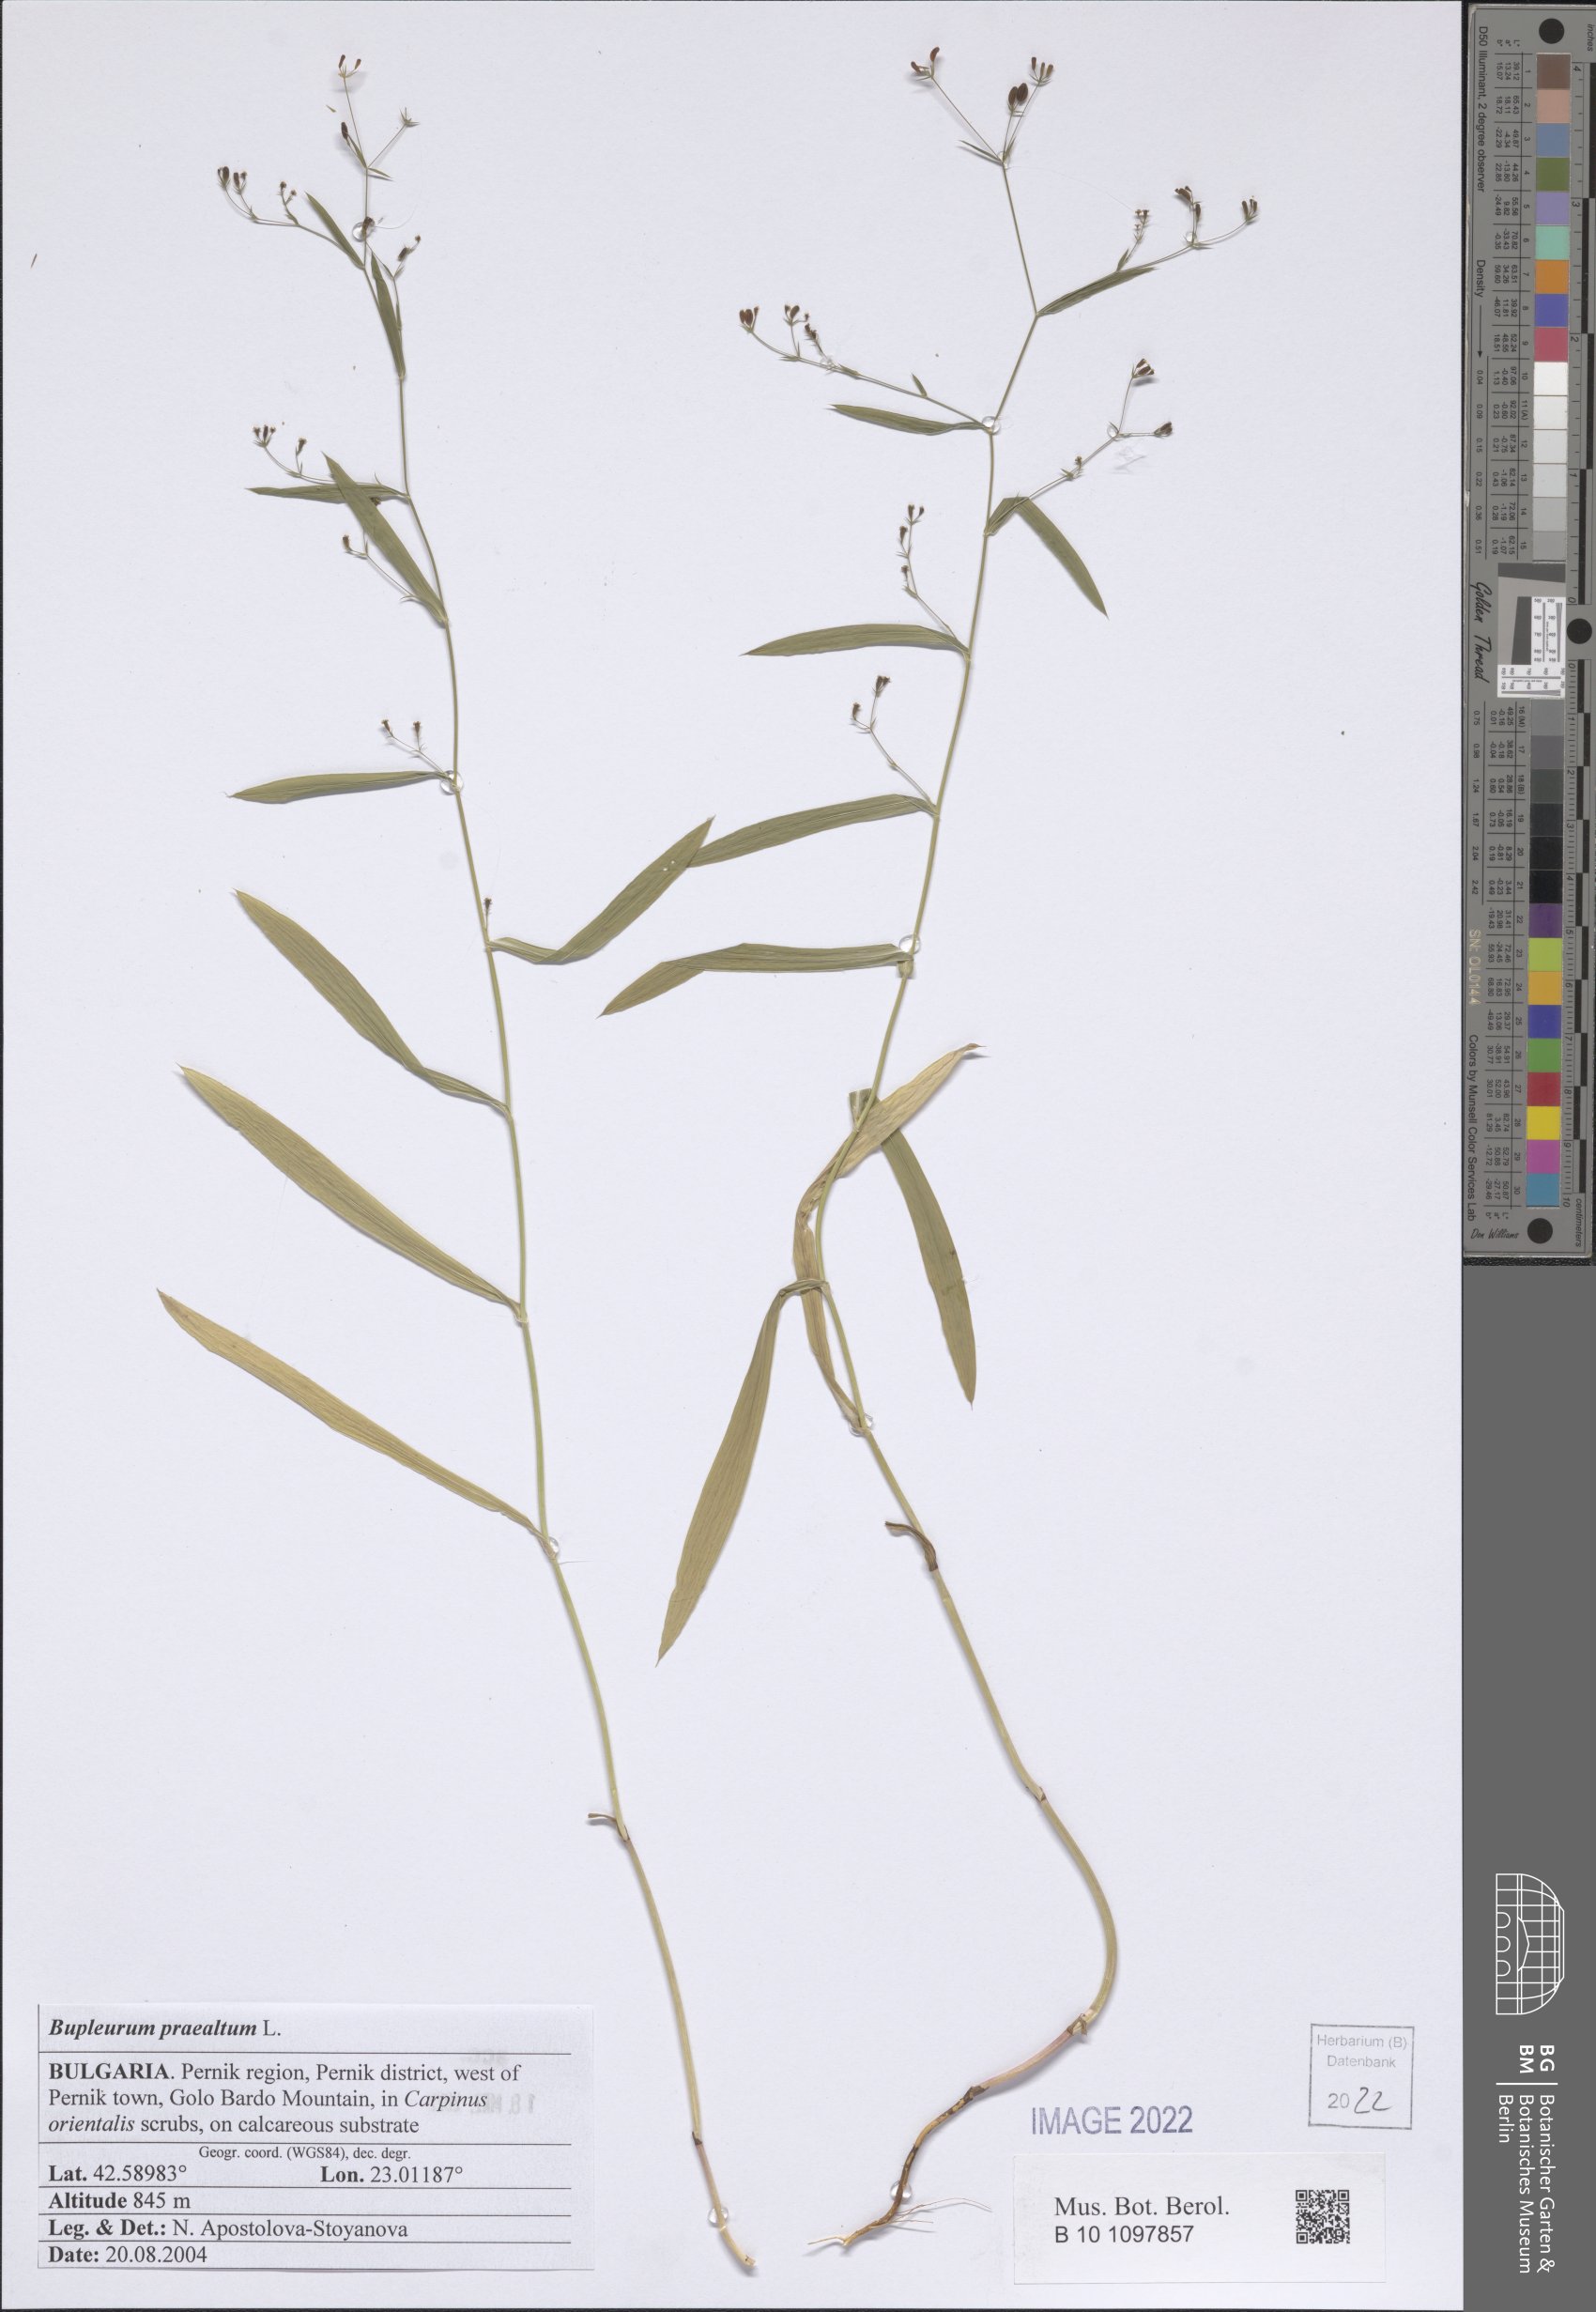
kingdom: Plantae
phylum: Tracheophyta
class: Magnoliopsida
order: Apiales
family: Apiaceae
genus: Bupleurum
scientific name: Bupleurum praealtum
